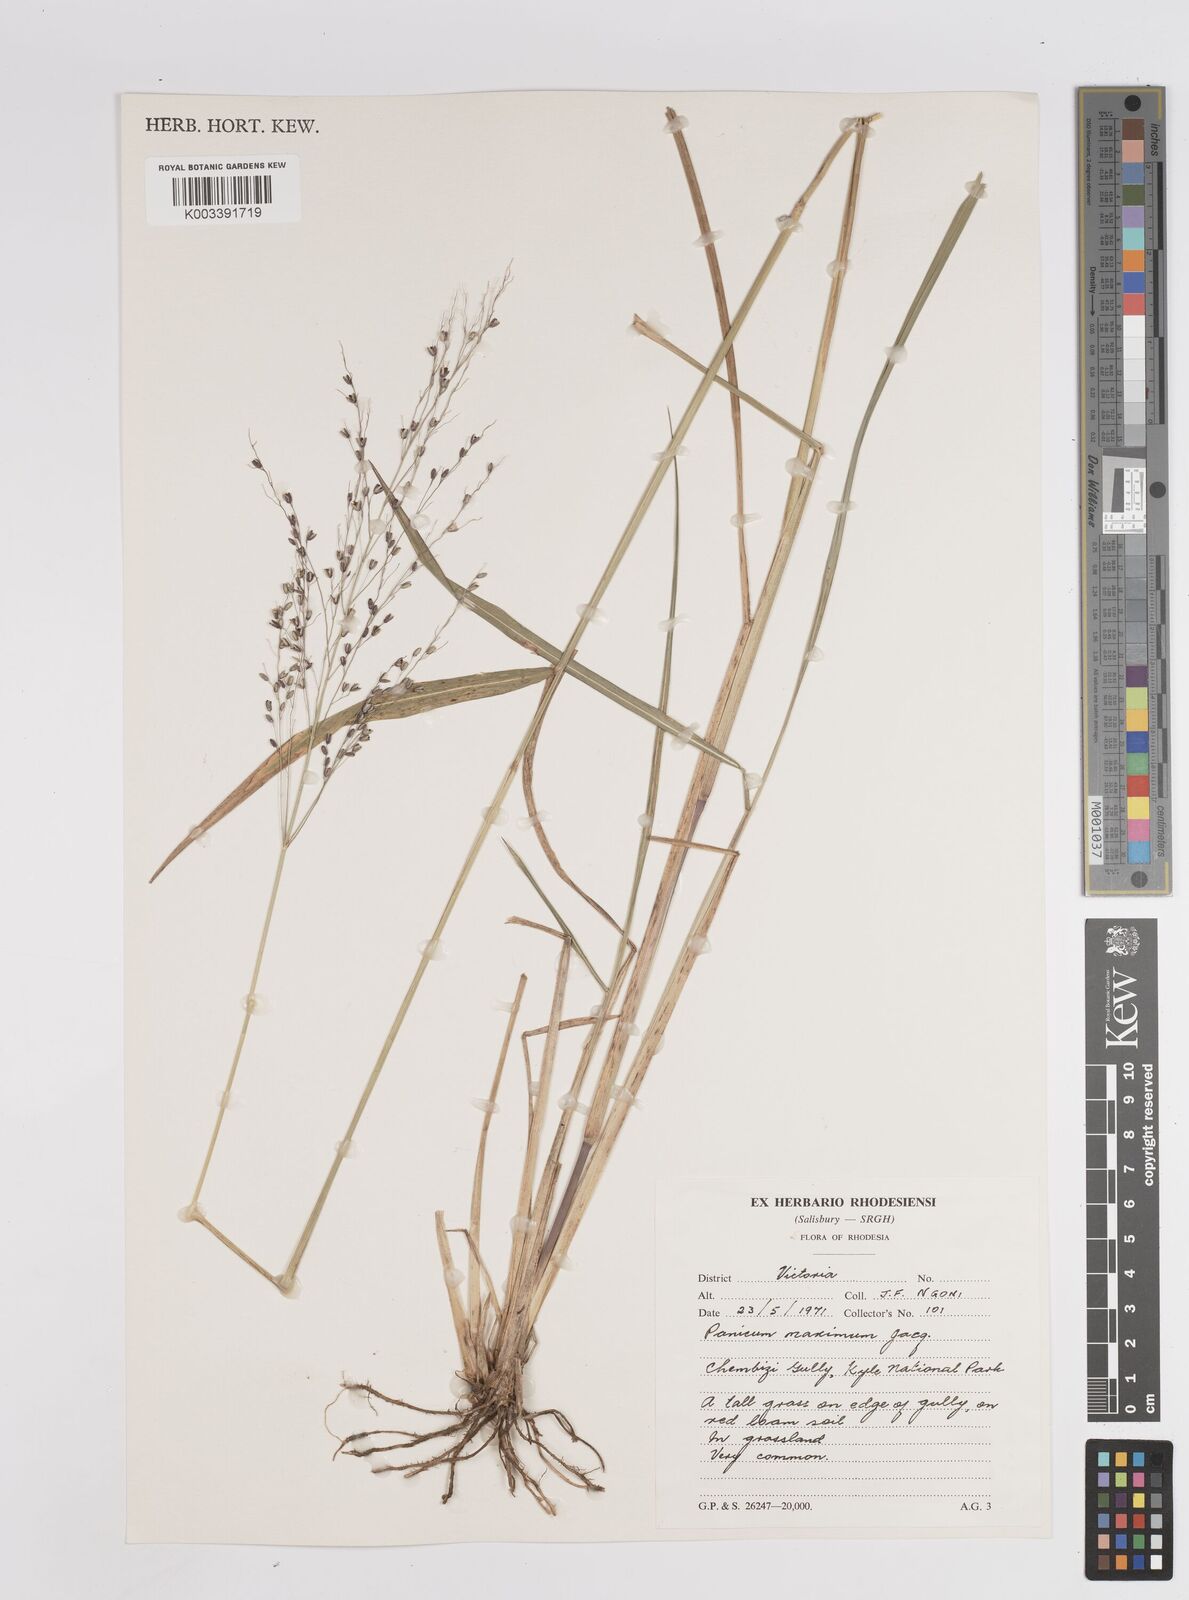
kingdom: Plantae
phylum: Tracheophyta
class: Liliopsida
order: Poales
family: Poaceae
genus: Megathyrsus
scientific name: Megathyrsus maximus
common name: Guineagrass
